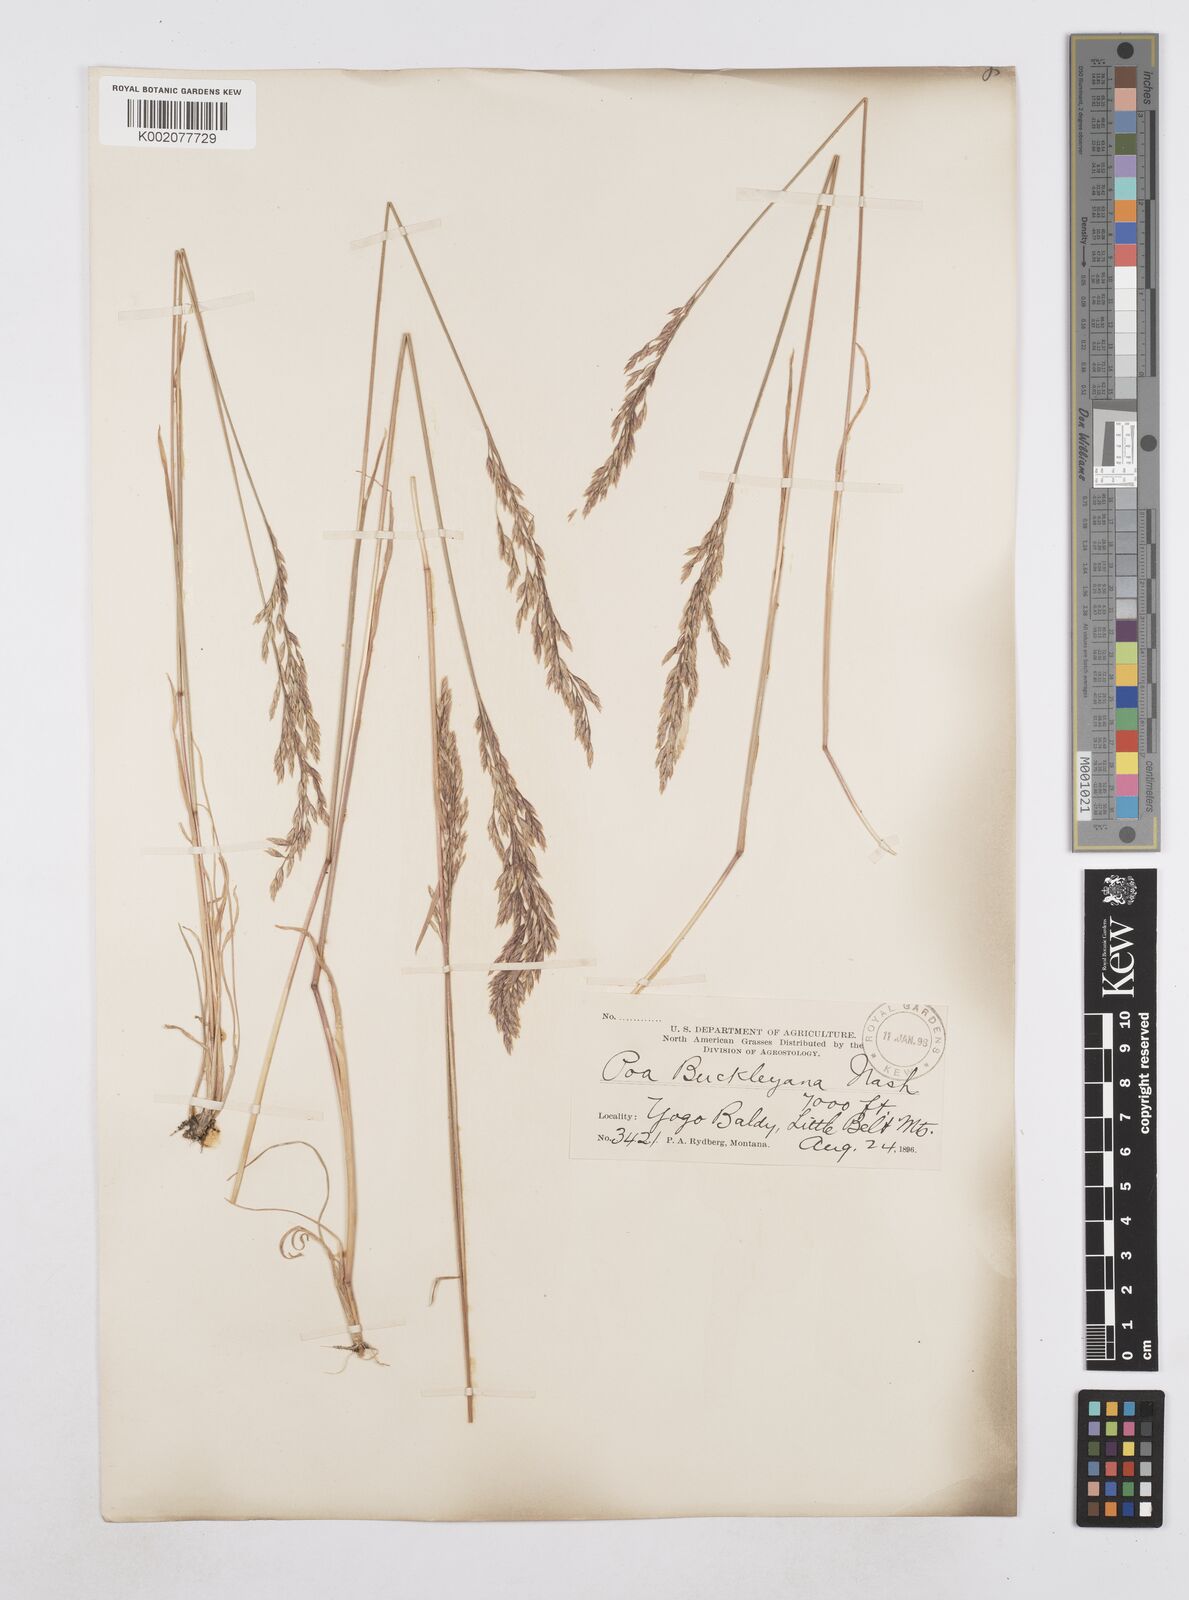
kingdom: Plantae
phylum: Tracheophyta
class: Liliopsida
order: Poales
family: Poaceae
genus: Poa
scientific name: Poa secunda
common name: Sandberg bluegrass
